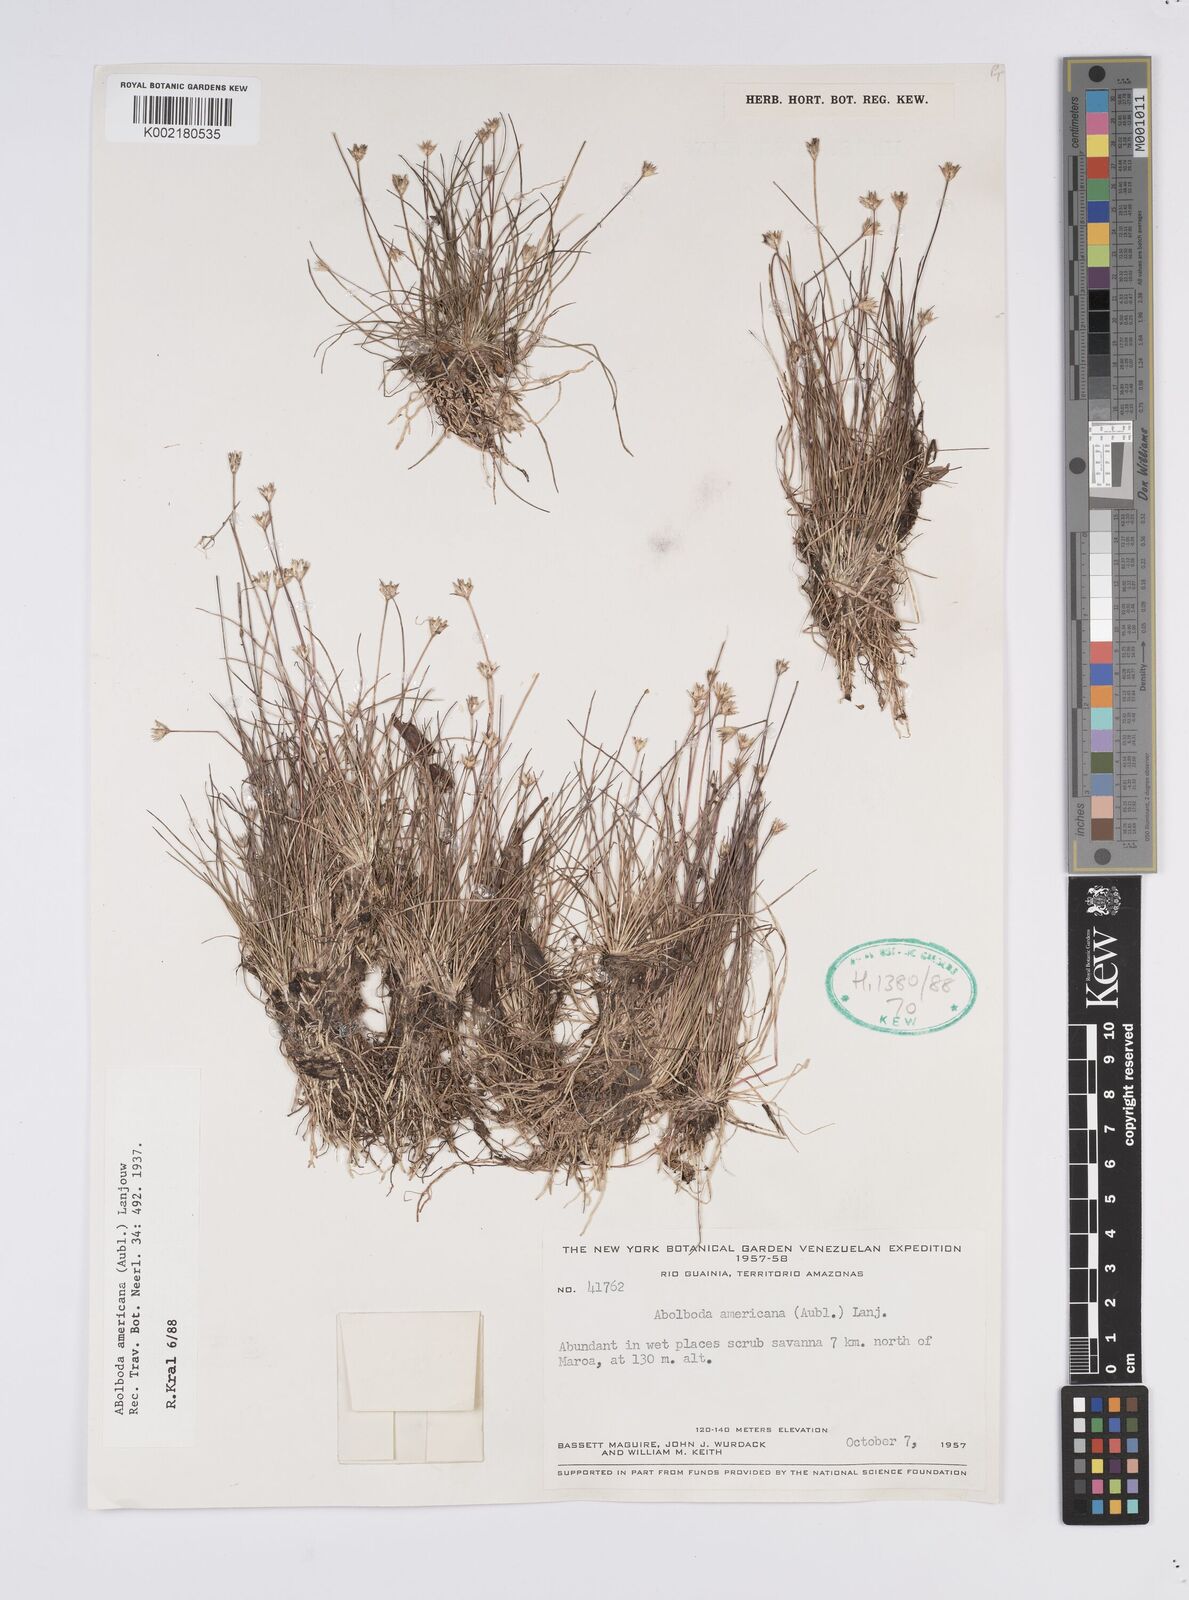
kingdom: Plantae
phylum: Tracheophyta
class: Liliopsida
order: Poales
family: Xyridaceae
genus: Abolboda
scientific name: Abolboda americana
